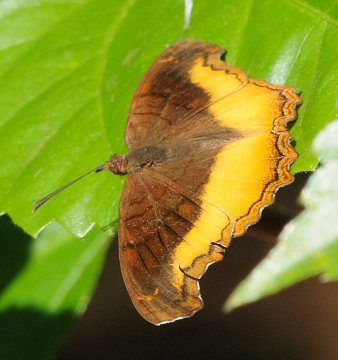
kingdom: Animalia
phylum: Arthropoda
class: Insecta
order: Lepidoptera
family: Nymphalidae
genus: Eurytela
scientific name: Eurytela dryope
